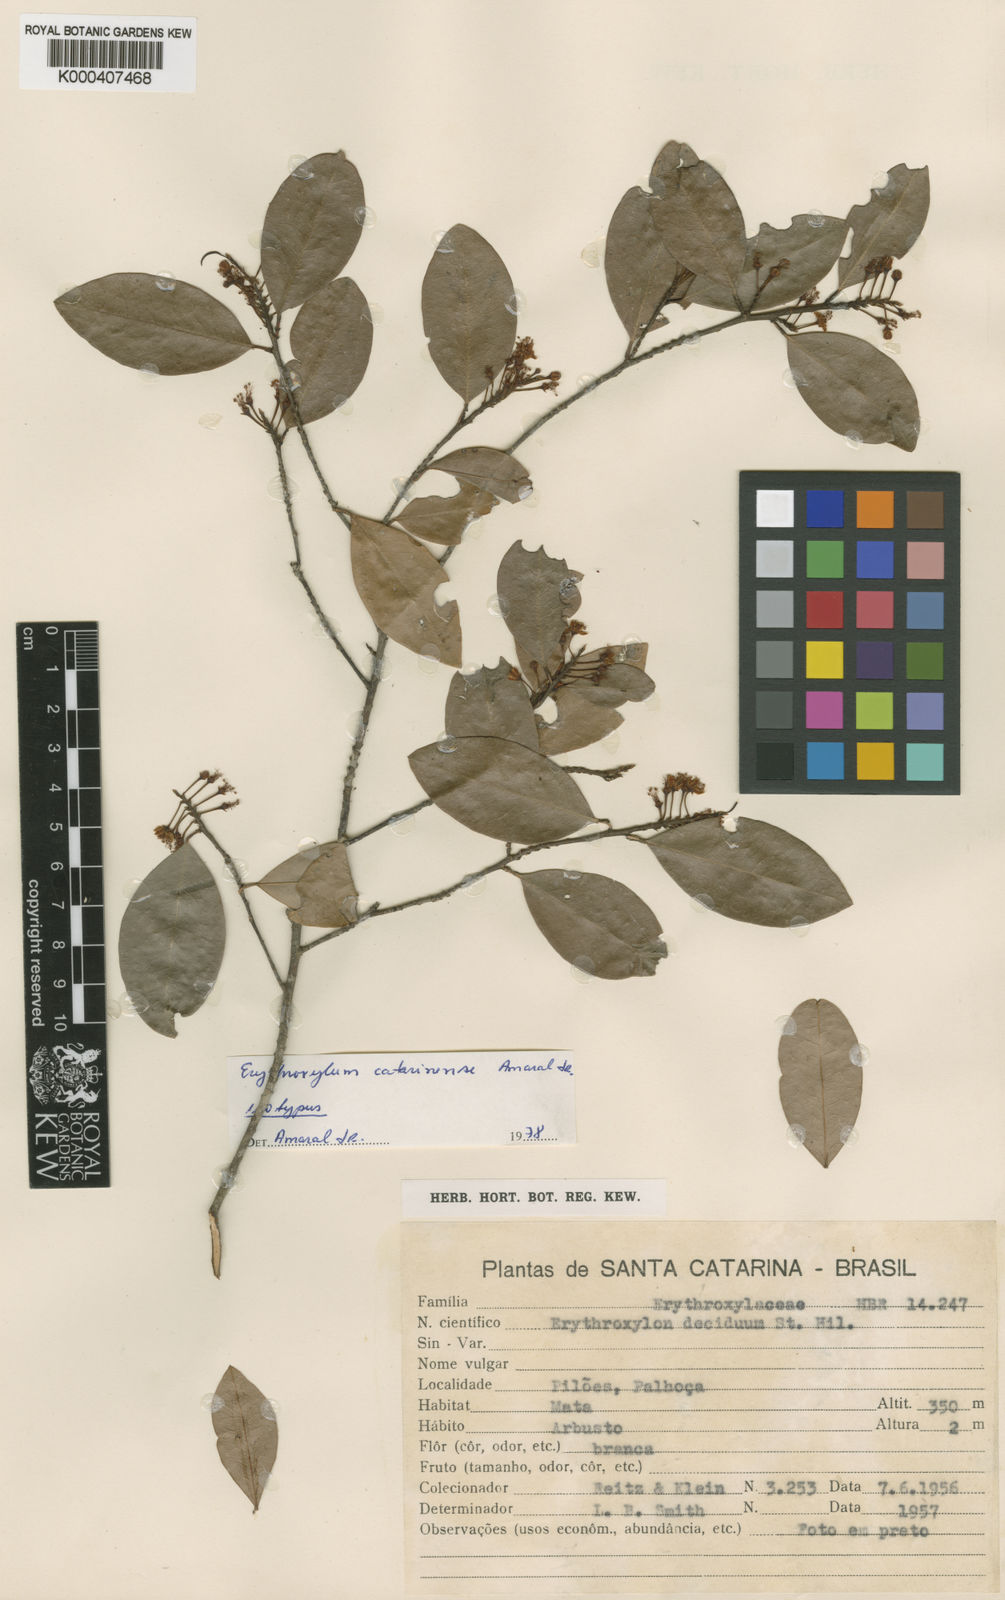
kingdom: Plantae
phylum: Tracheophyta
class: Magnoliopsida
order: Malpighiales
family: Erythroxylaceae
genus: Erythroxylum
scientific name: Erythroxylum catharinense
